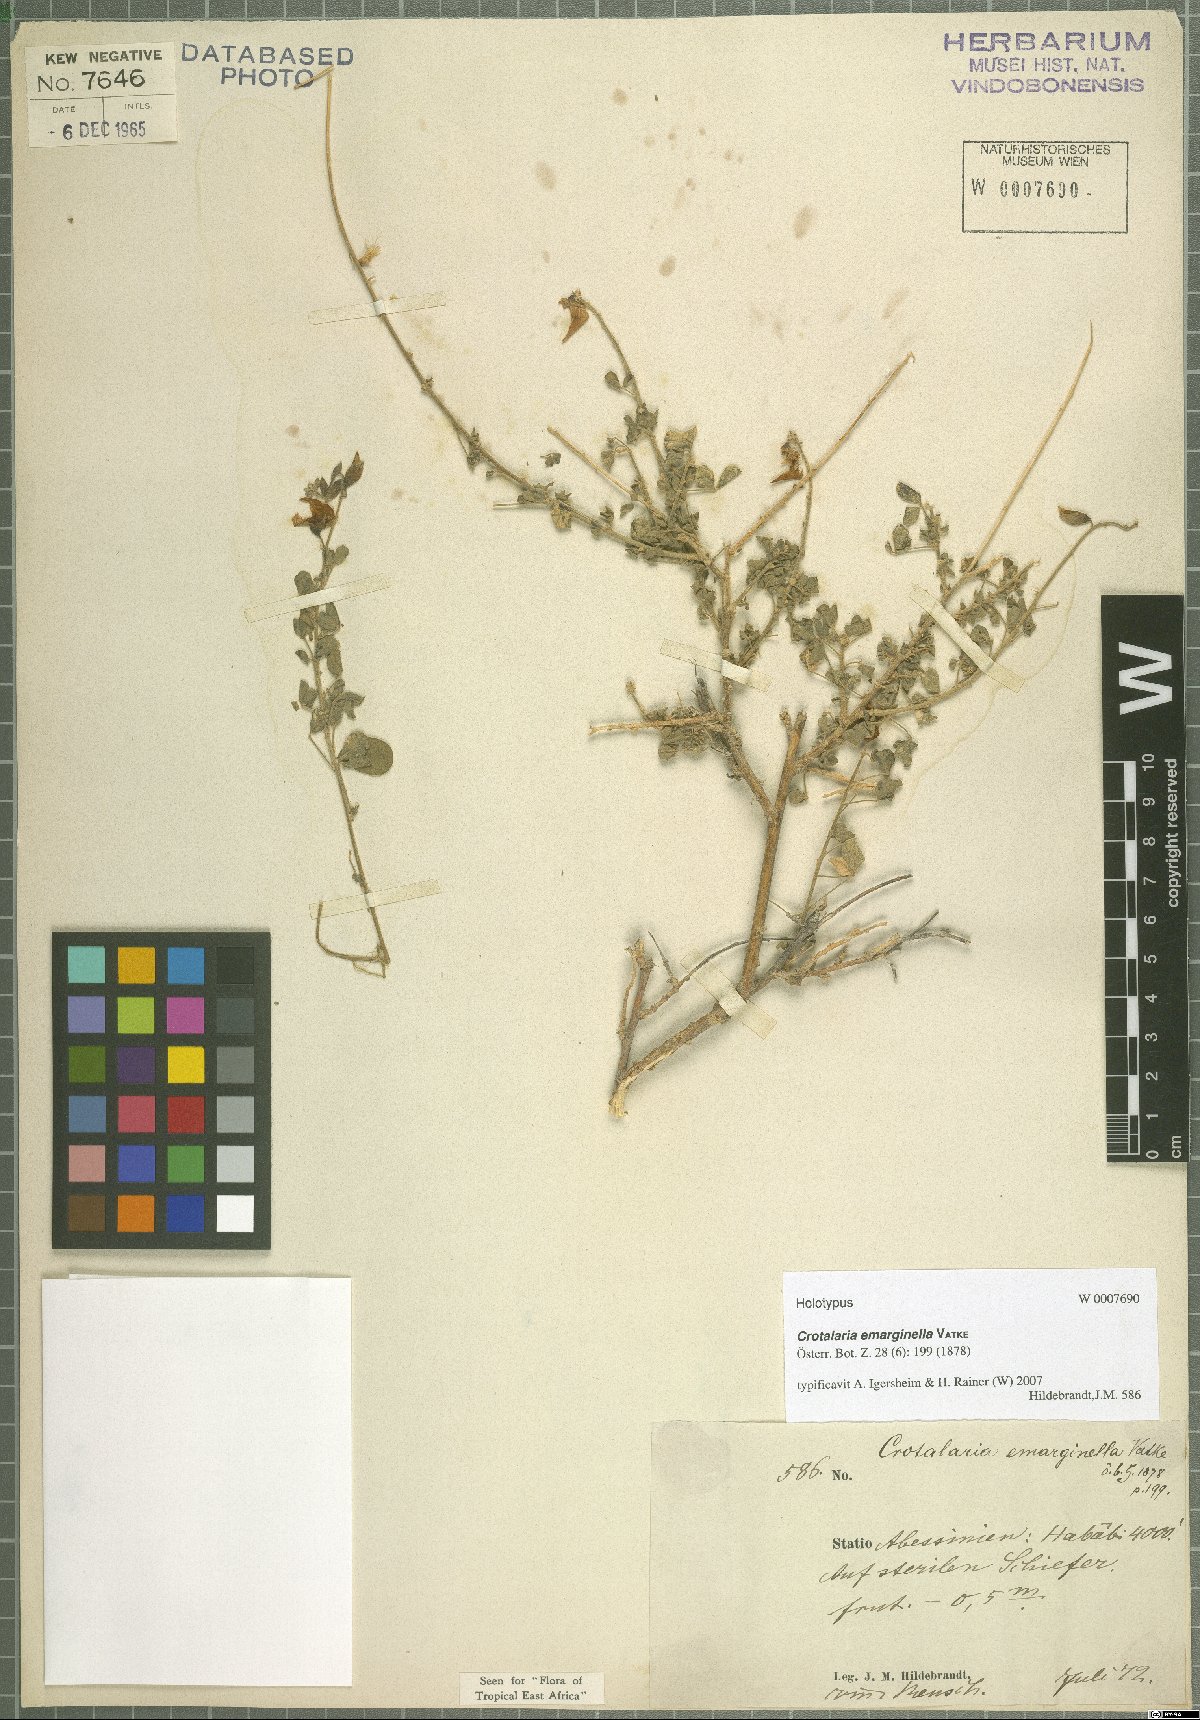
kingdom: Plantae
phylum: Tracheophyta
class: Magnoliopsida
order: Fabales
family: Fabaceae
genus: Crotalaria
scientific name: Crotalaria emarginella
